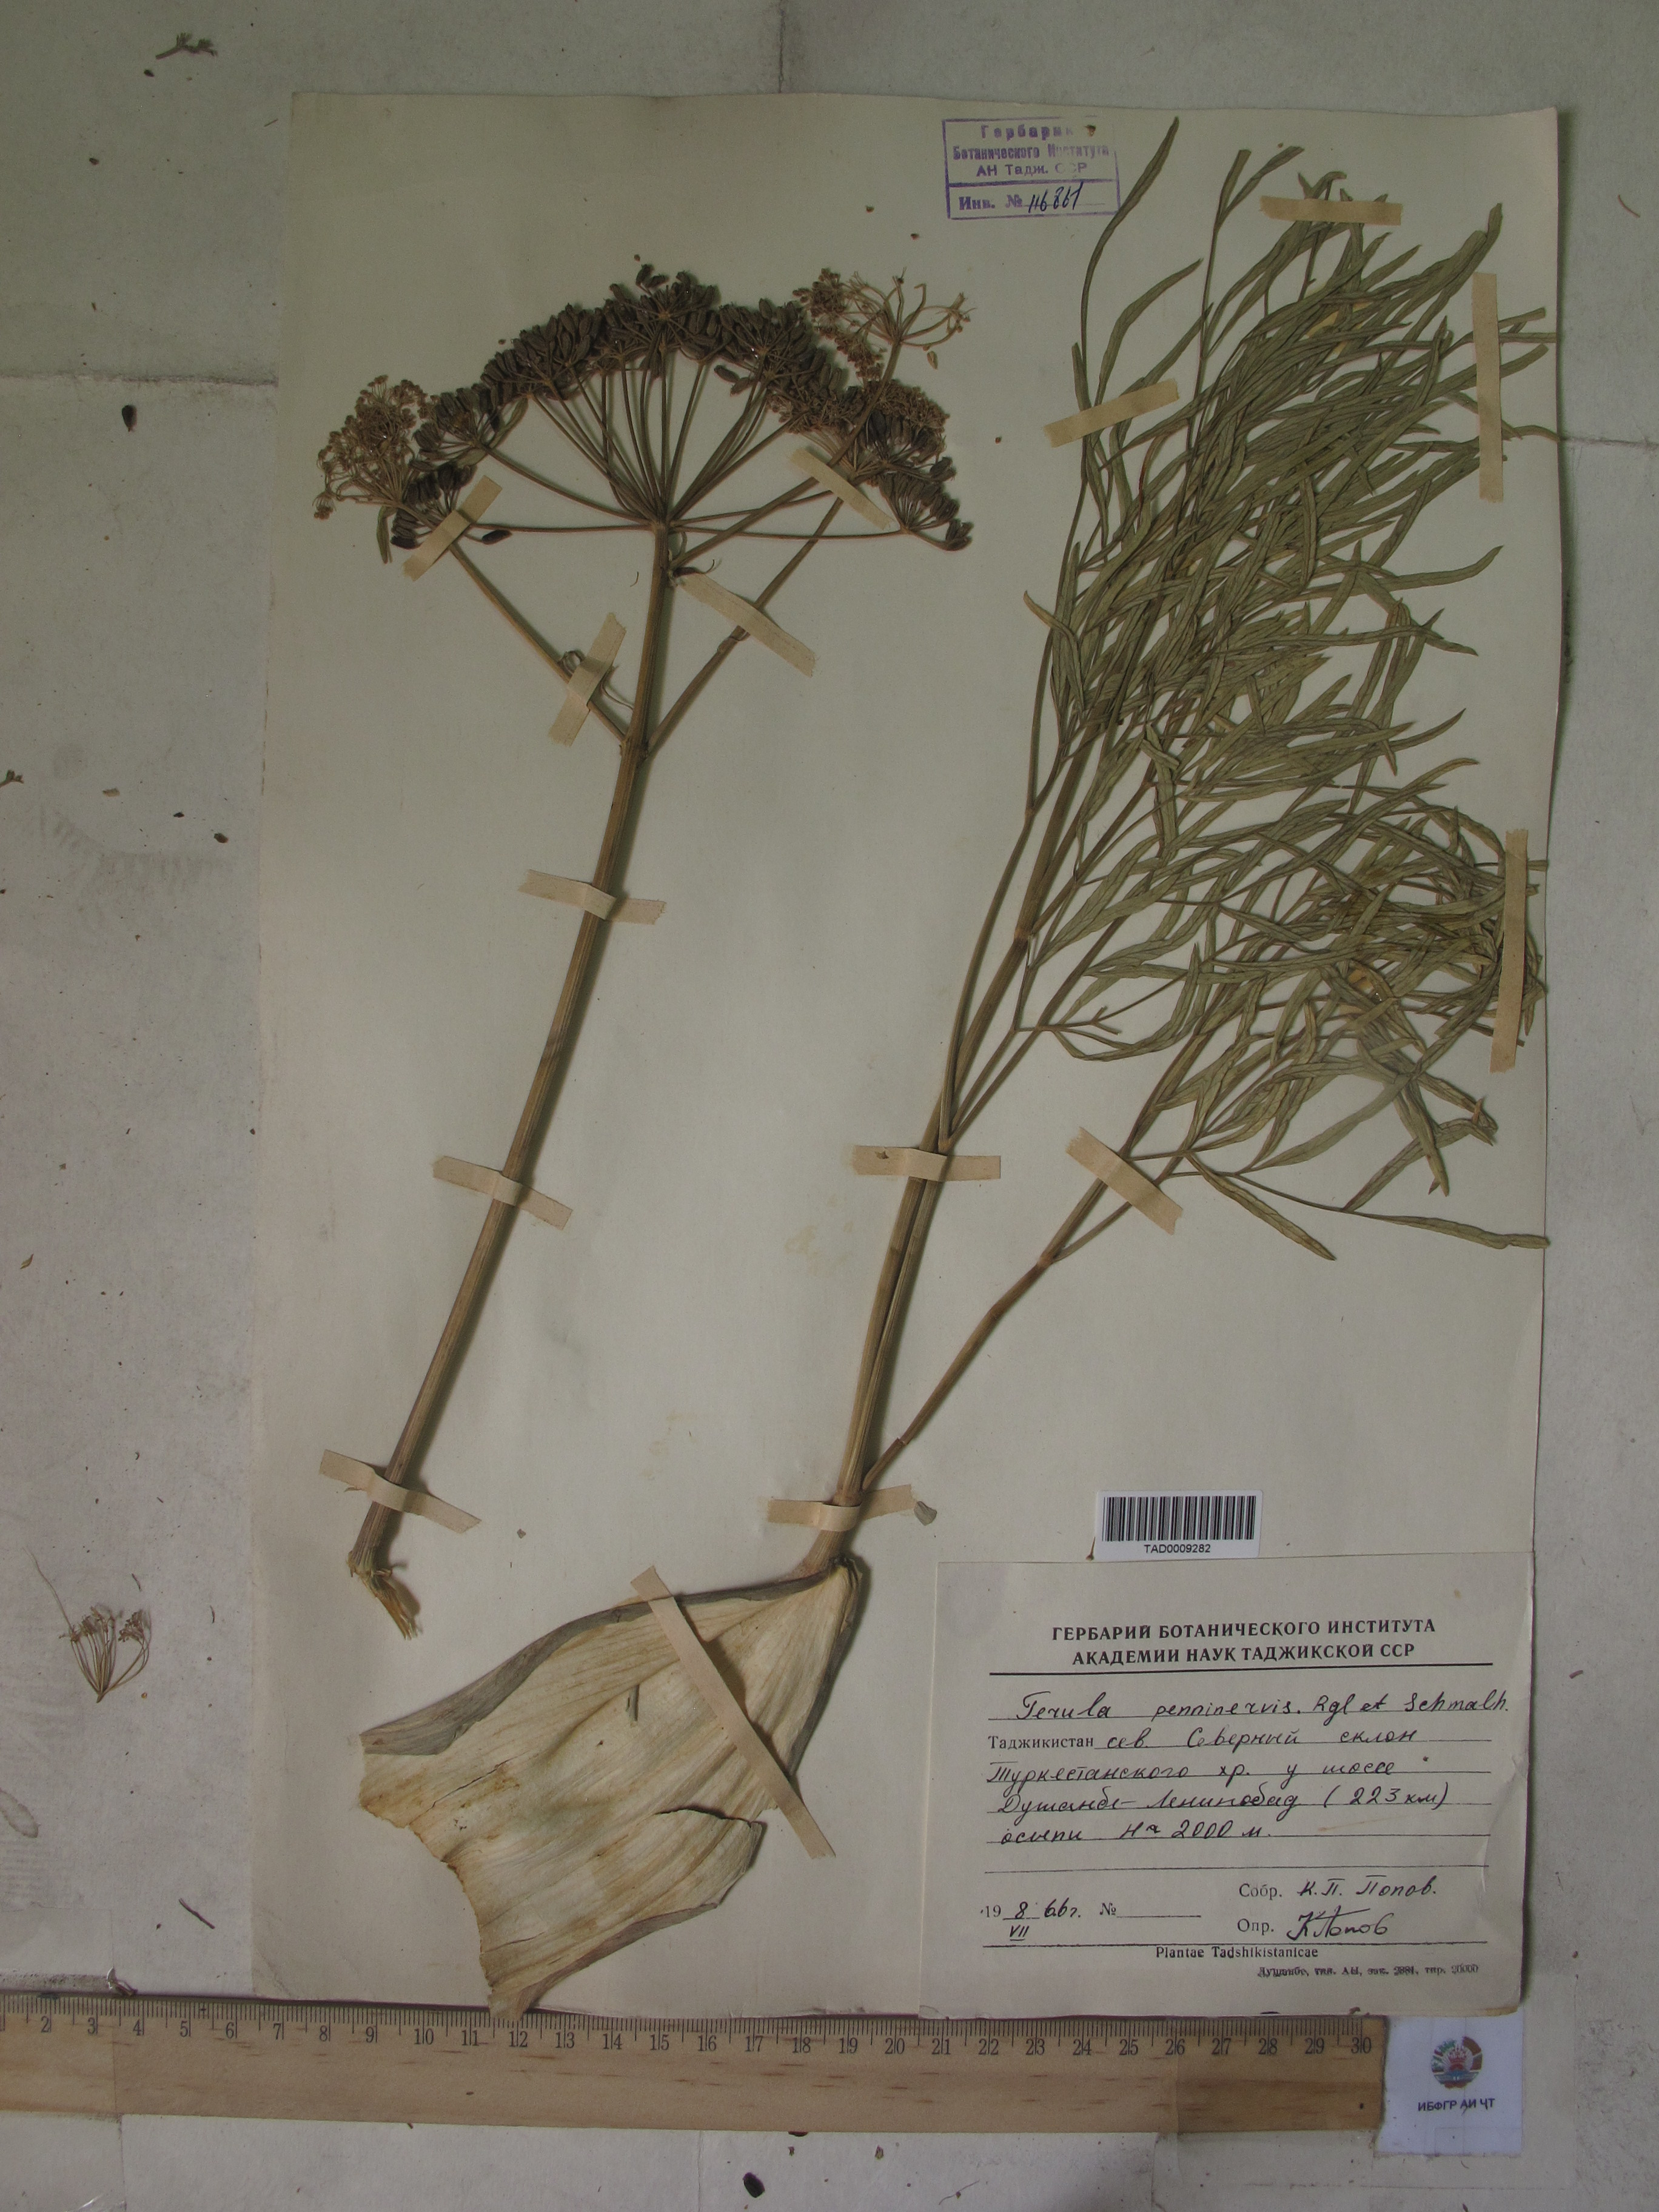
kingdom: Plantae
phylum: Tracheophyta
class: Magnoliopsida
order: Apiales
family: Apiaceae
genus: Ferula
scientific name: Ferula
